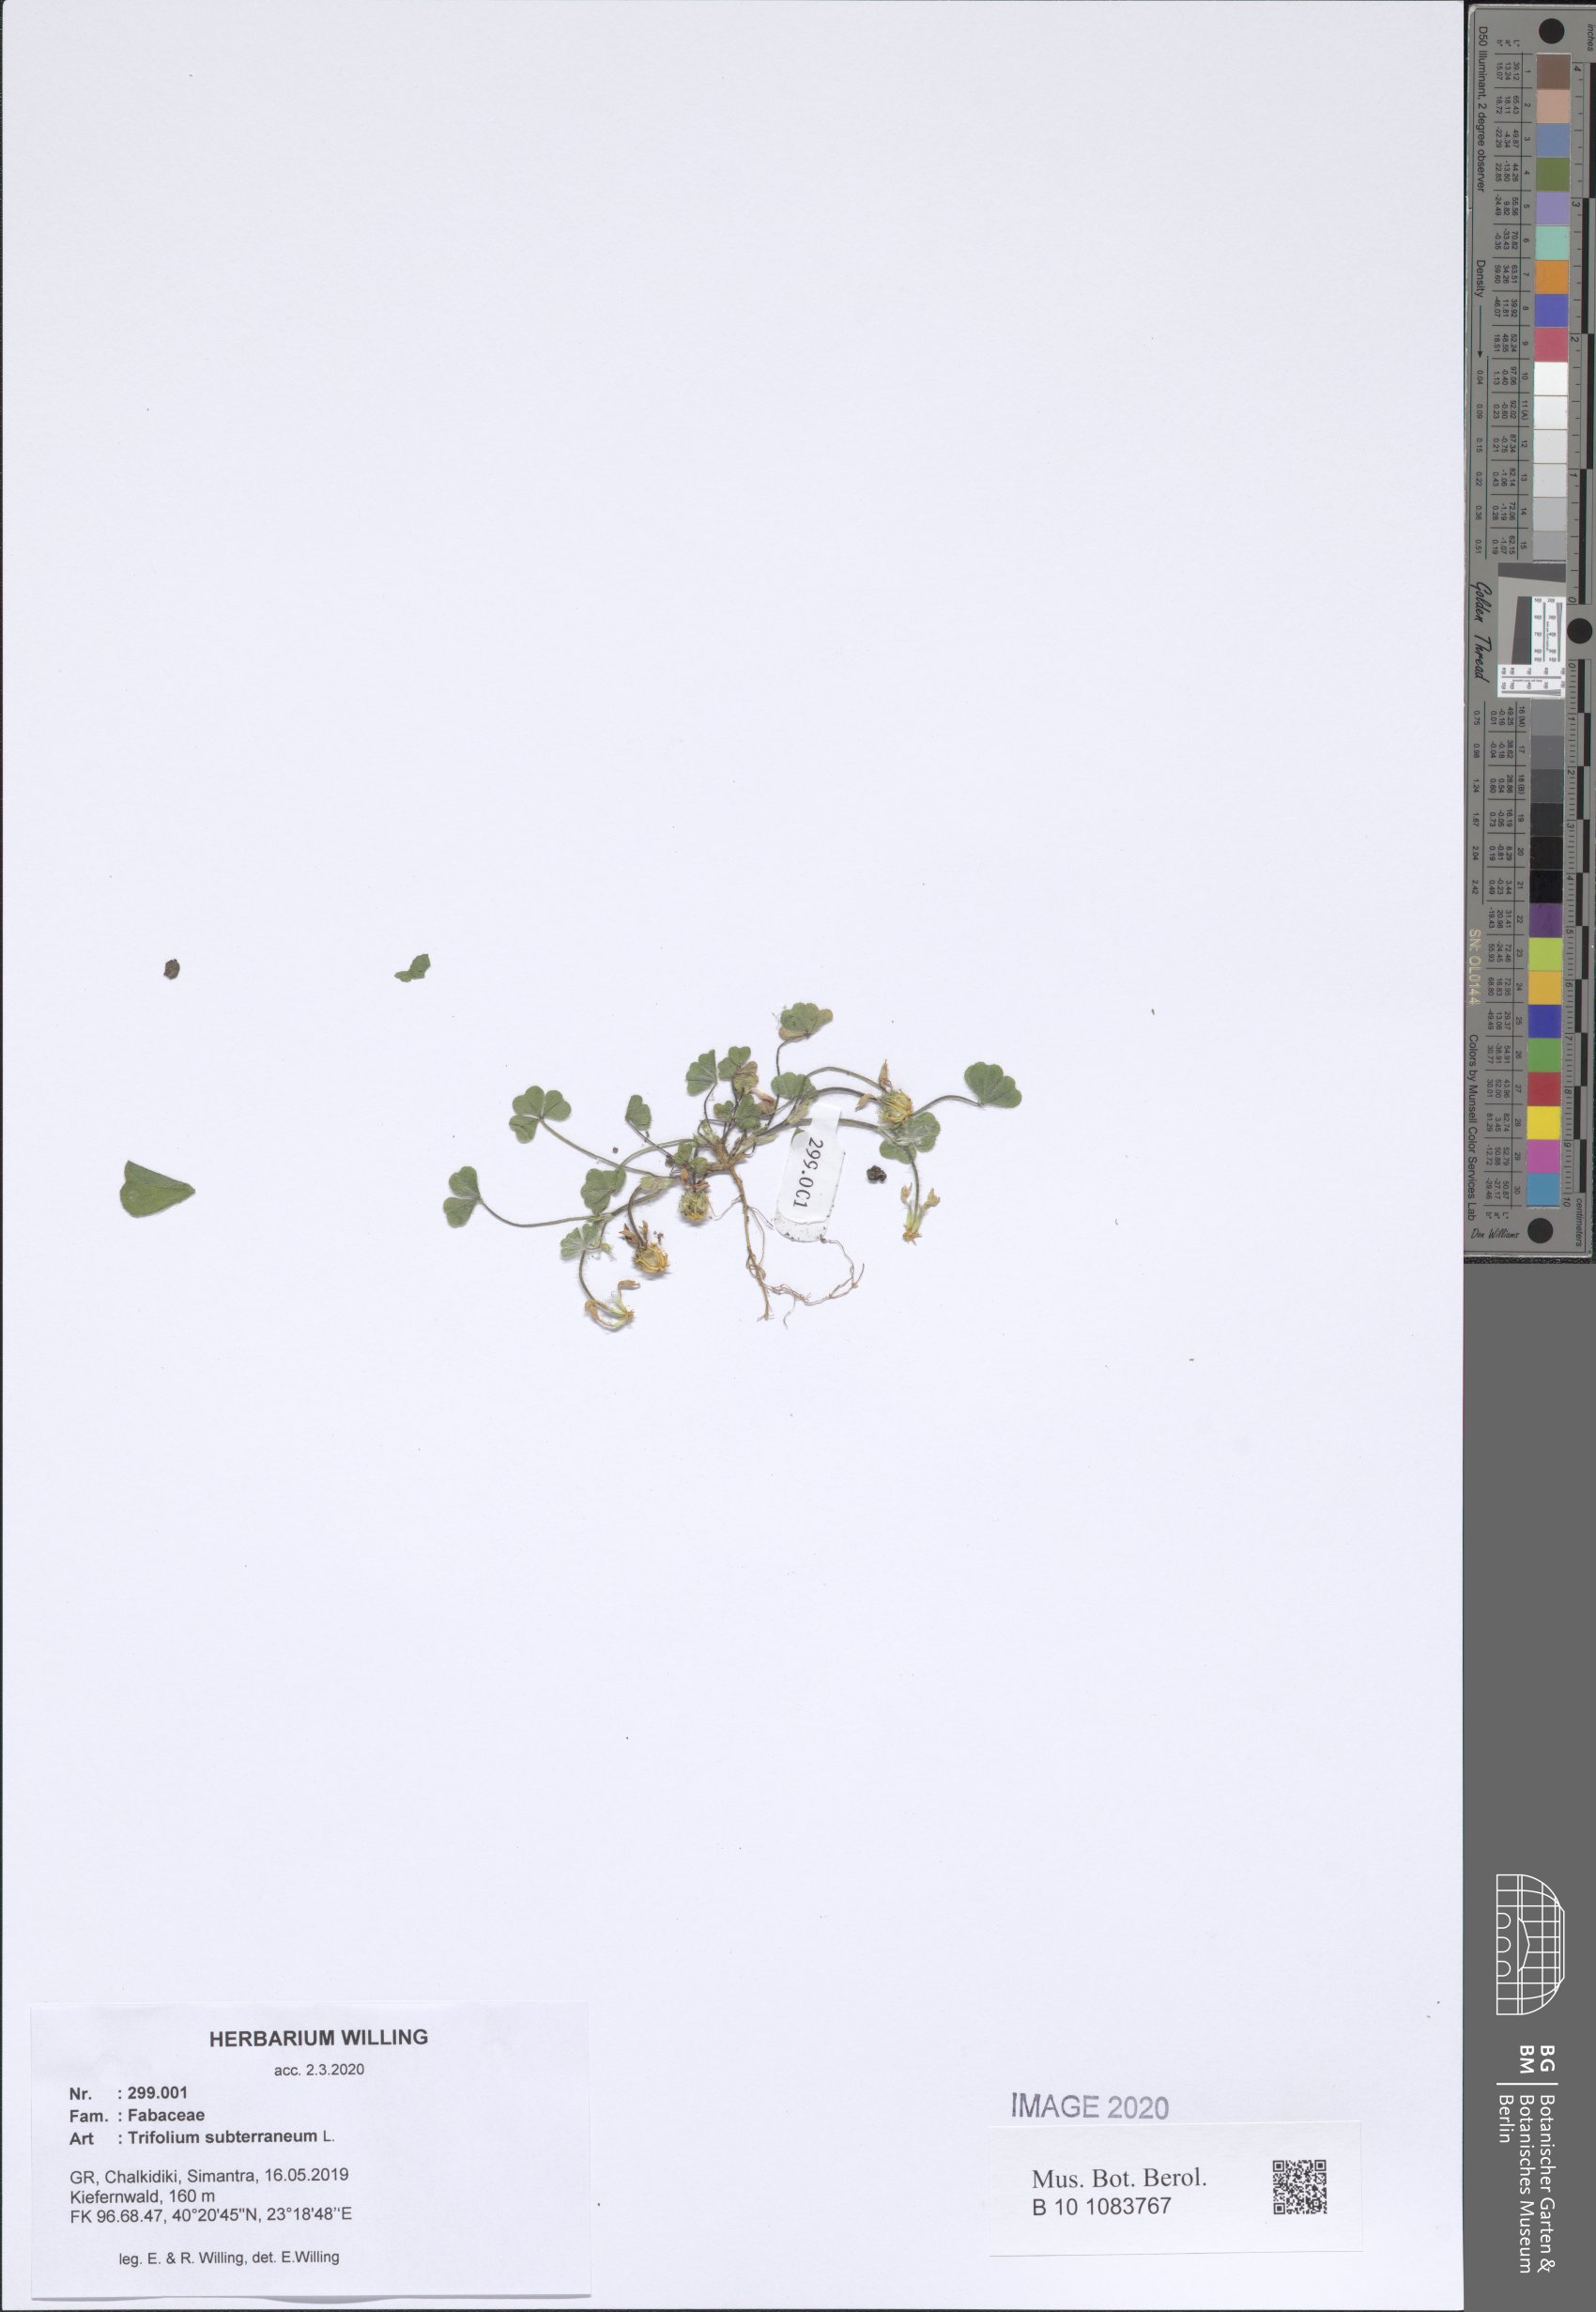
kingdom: Plantae
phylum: Tracheophyta
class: Magnoliopsida
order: Fabales
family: Fabaceae
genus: Trifolium
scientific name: Trifolium subterraneum
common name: Subterranean clover
